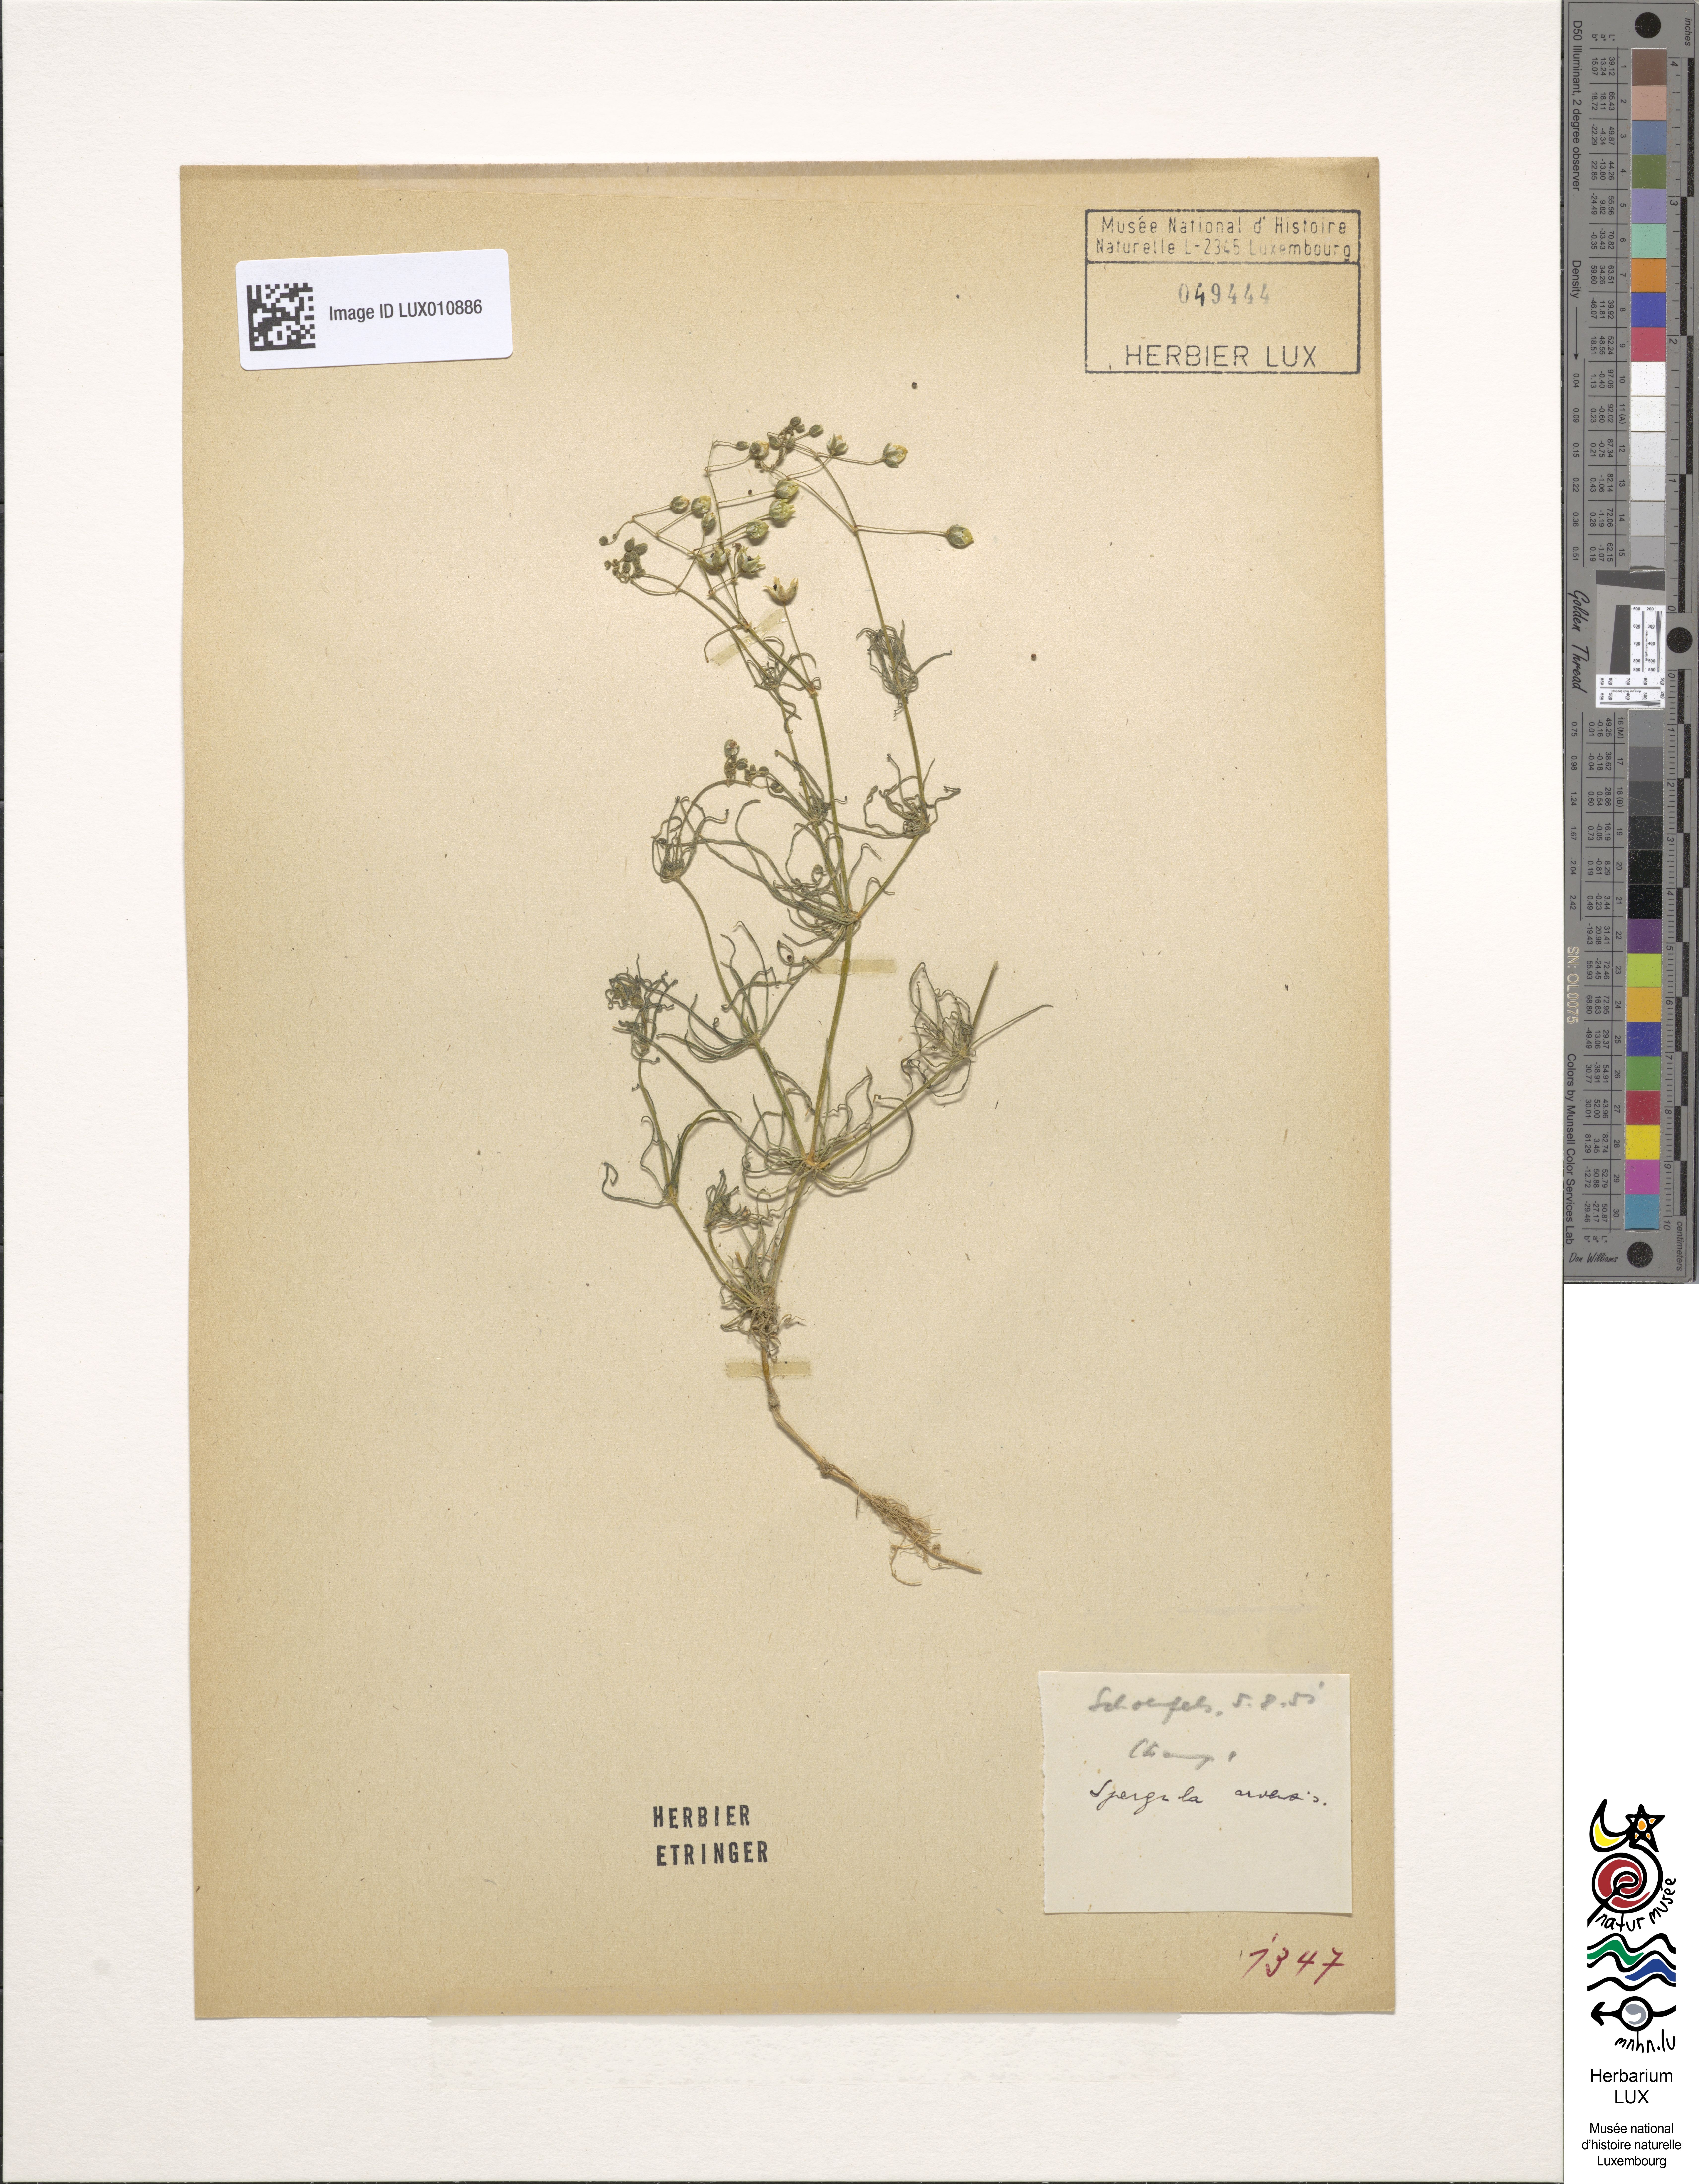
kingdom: Plantae
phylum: Tracheophyta
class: Magnoliopsida
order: Caryophyllales
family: Caryophyllaceae
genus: Spergula
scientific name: Spergula arvensis
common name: Corn spurrey
